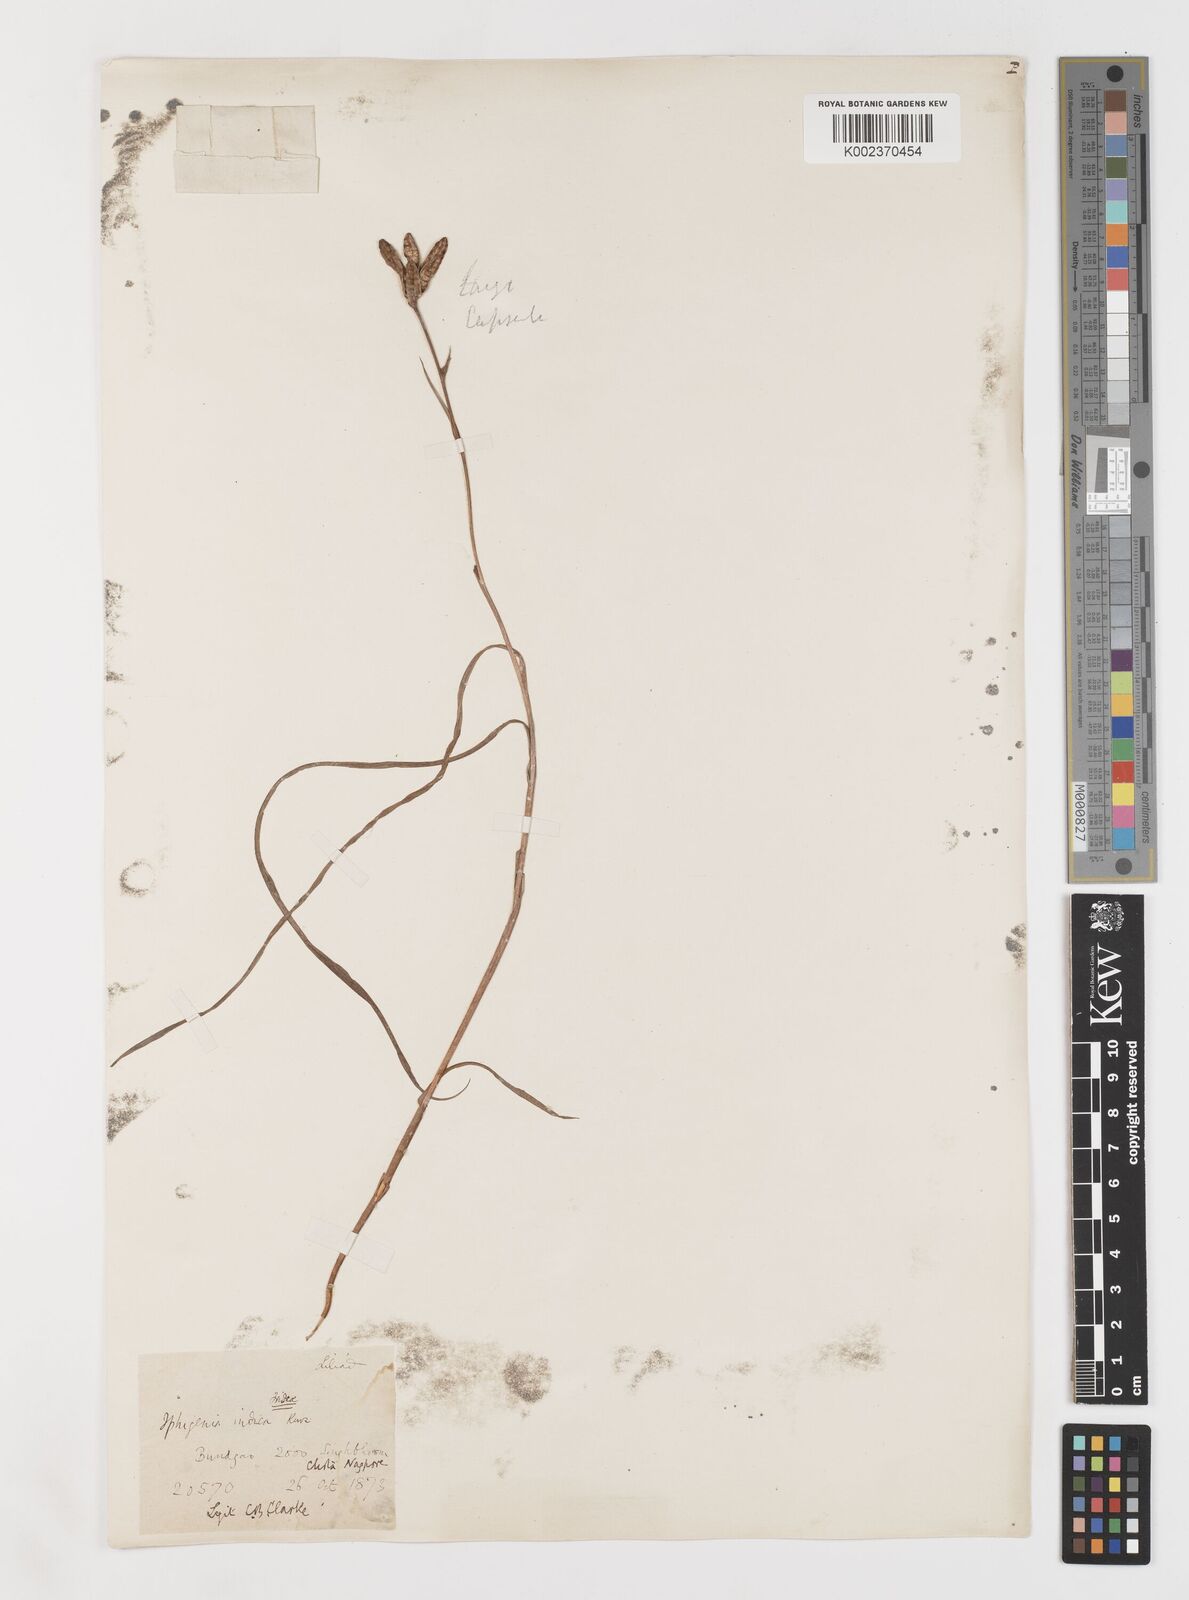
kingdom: Plantae
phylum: Tracheophyta
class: Liliopsida
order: Liliales
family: Colchicaceae
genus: Iphigenia
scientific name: Iphigenia indica
